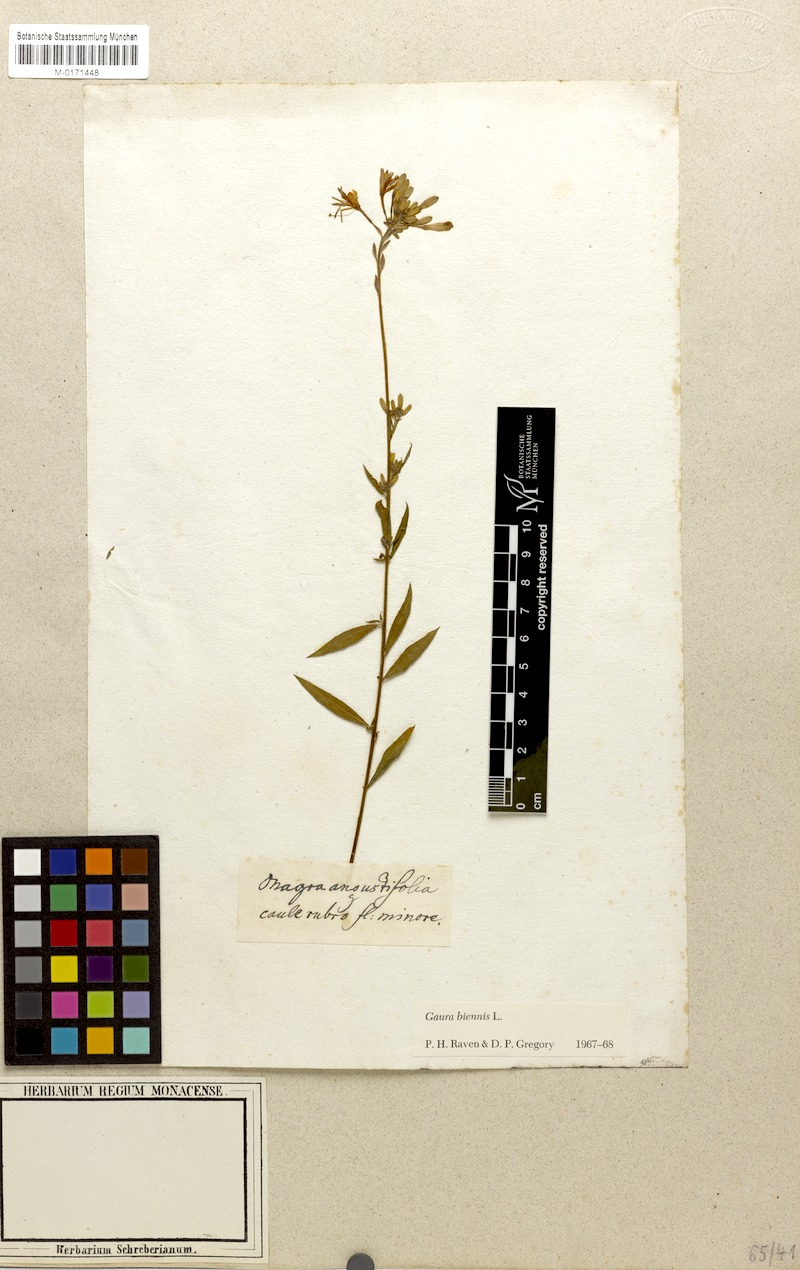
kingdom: Plantae
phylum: Tracheophyta
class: Magnoliopsida
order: Myrtales
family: Onagraceae
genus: Oenothera
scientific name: Oenothera gaura
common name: Biennial beeblossom
